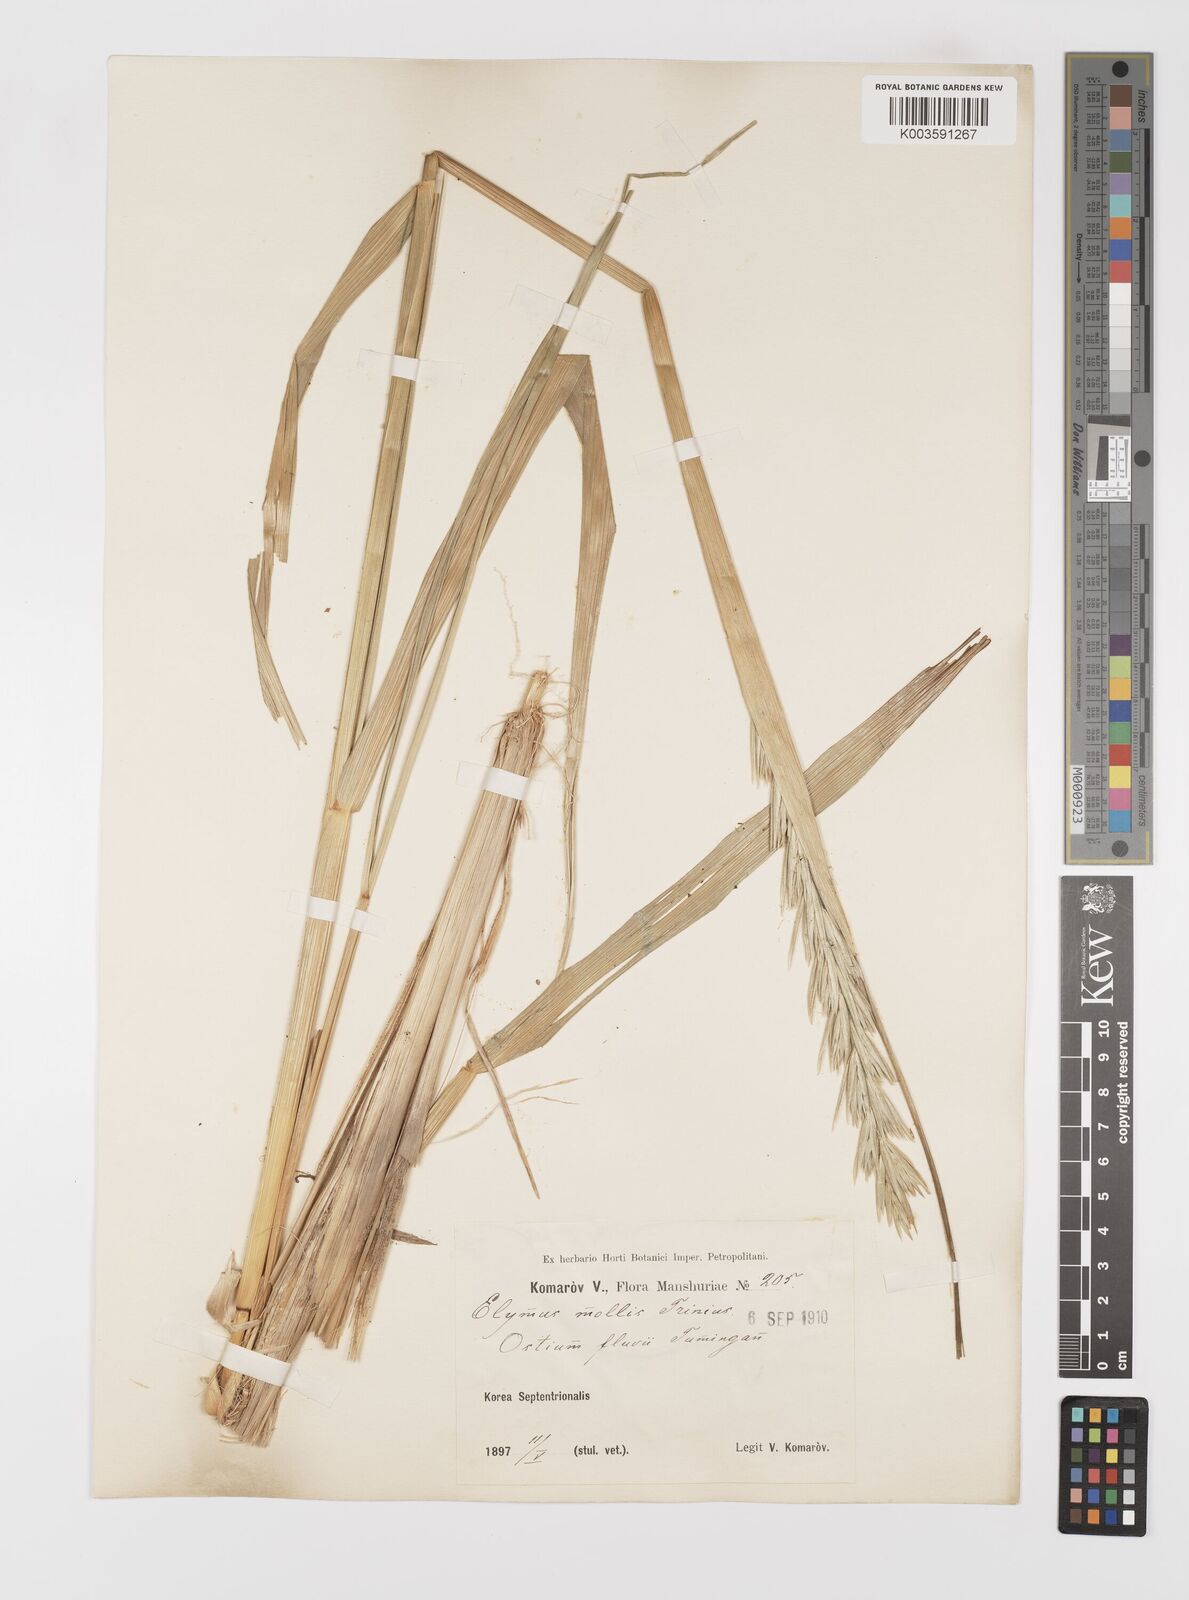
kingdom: Plantae
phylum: Tracheophyta
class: Liliopsida
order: Poales
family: Poaceae
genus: Leymus
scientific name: Leymus mollis
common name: American dune grass
